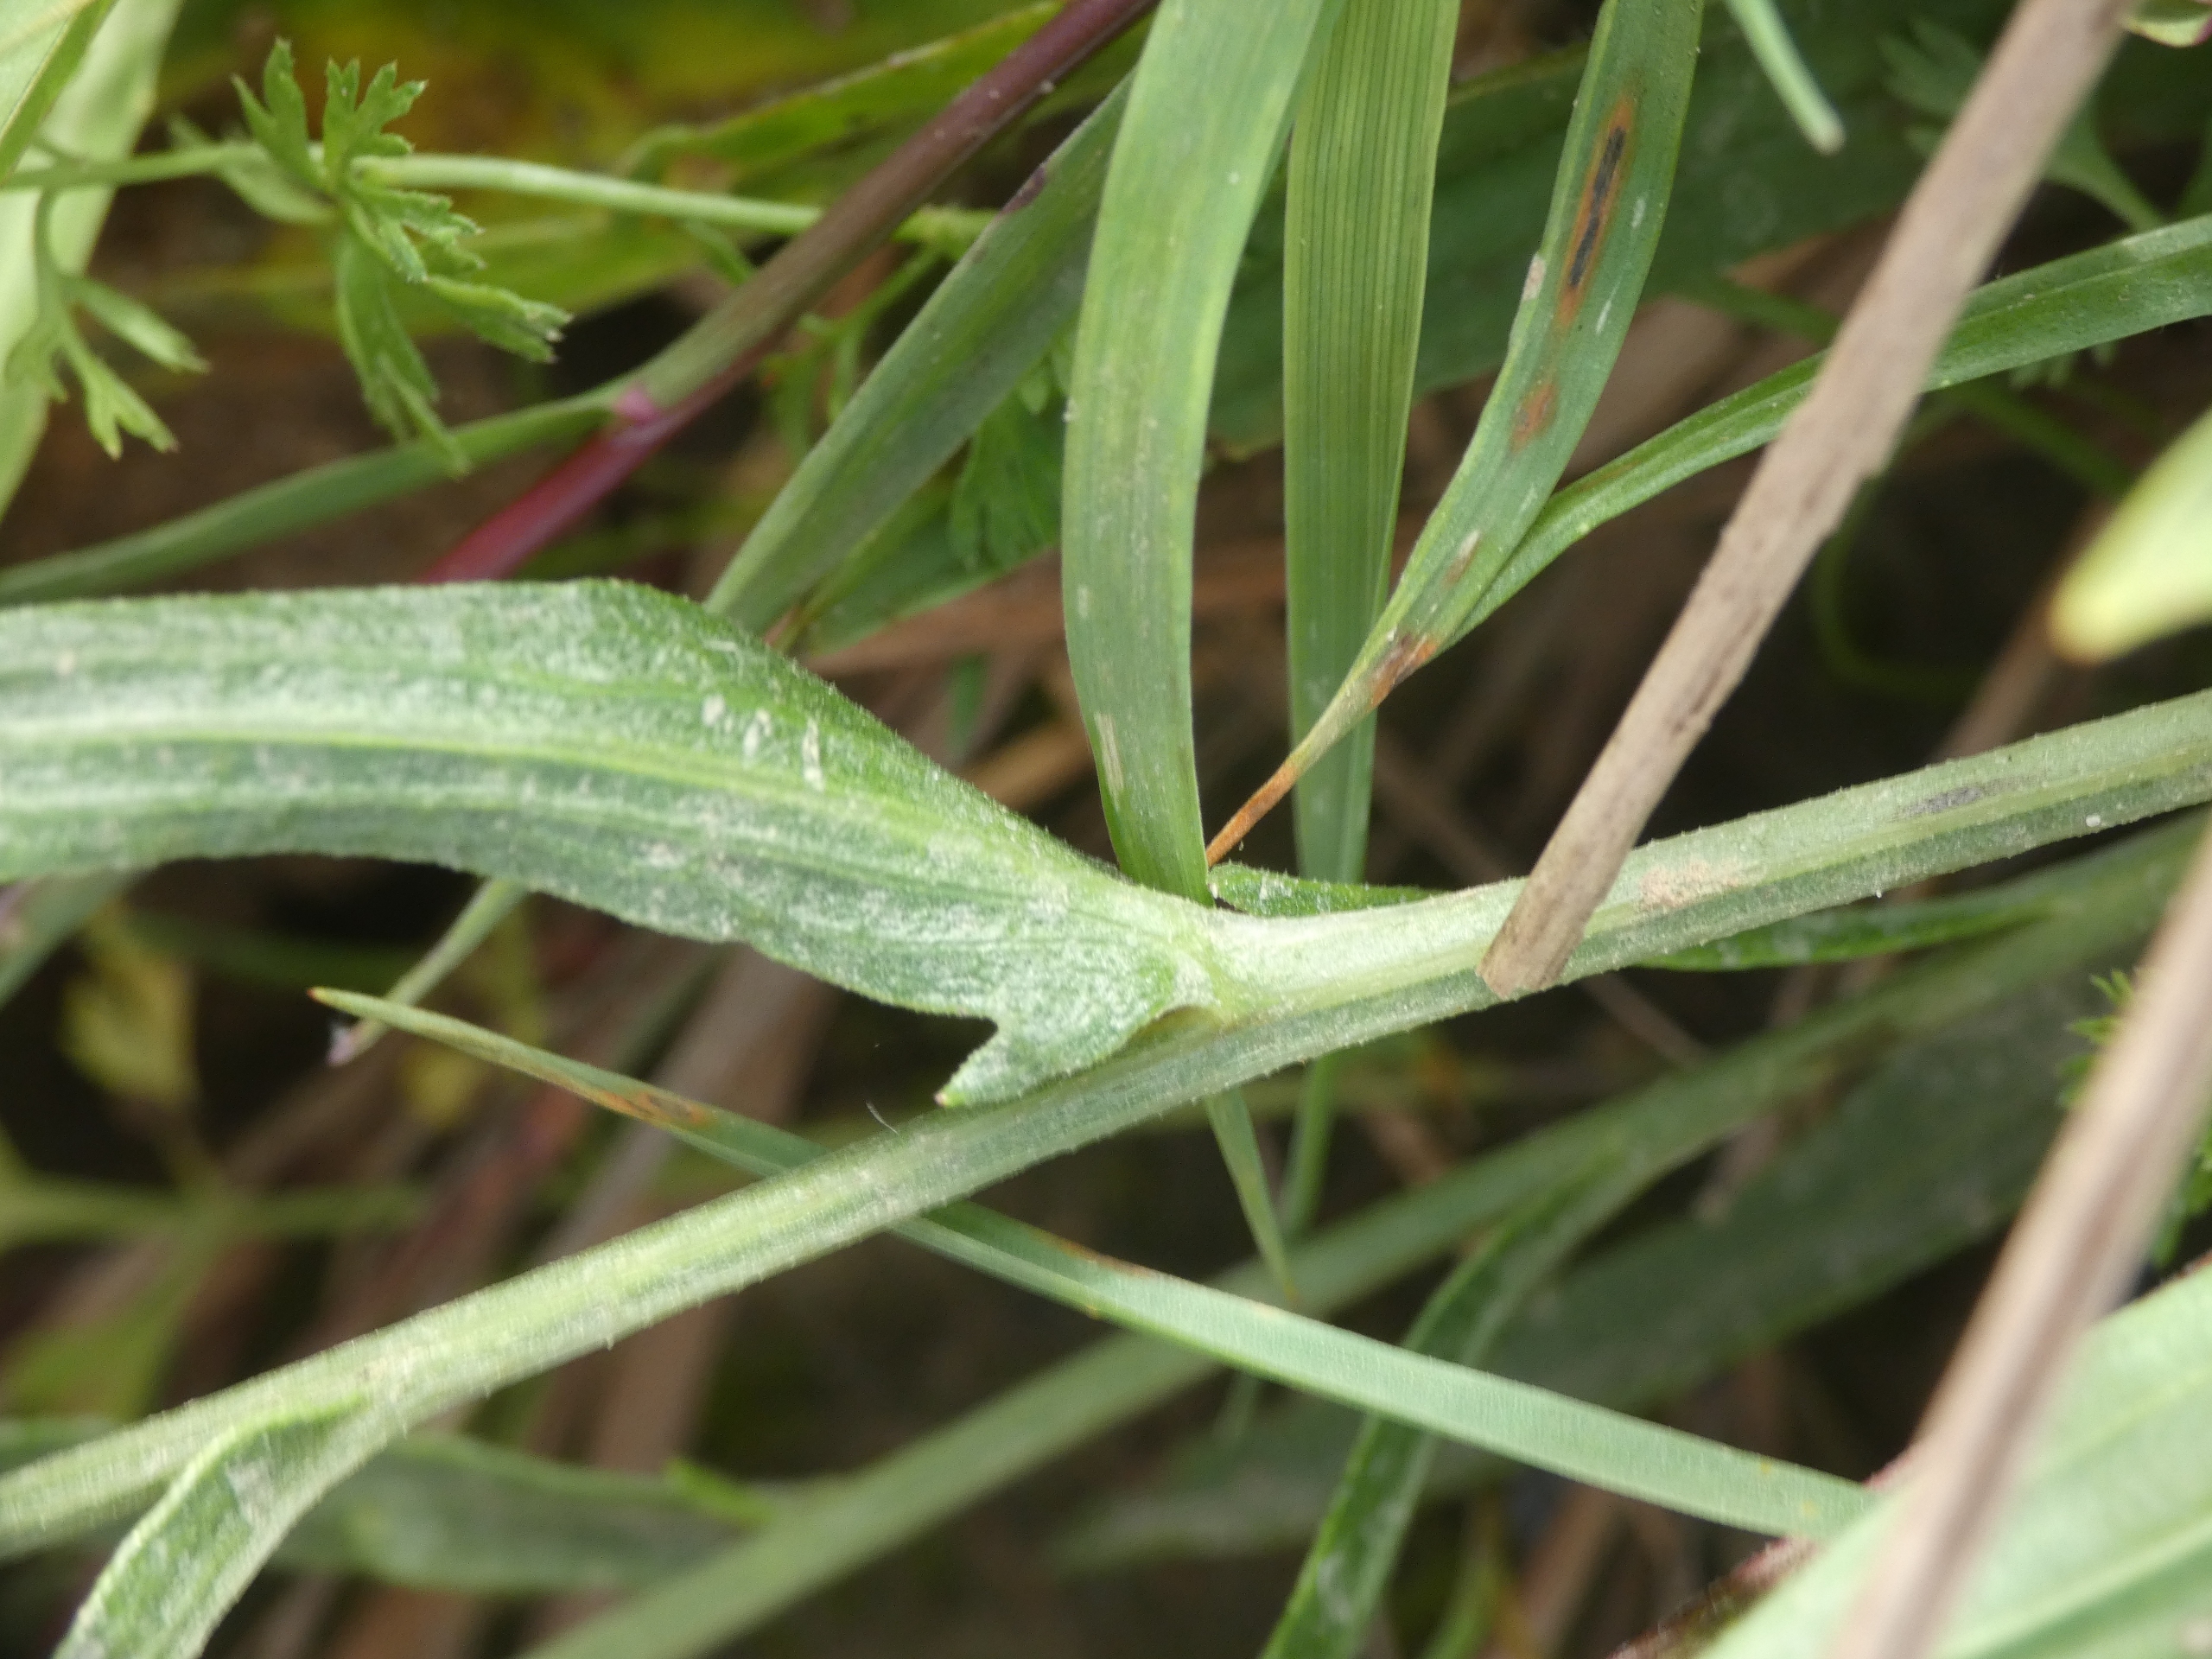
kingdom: Plantae
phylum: Tracheophyta
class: Magnoliopsida
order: Asterales
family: Asteraceae
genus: Centaurea
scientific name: Centaurea jacea
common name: Almindelig knopurt
